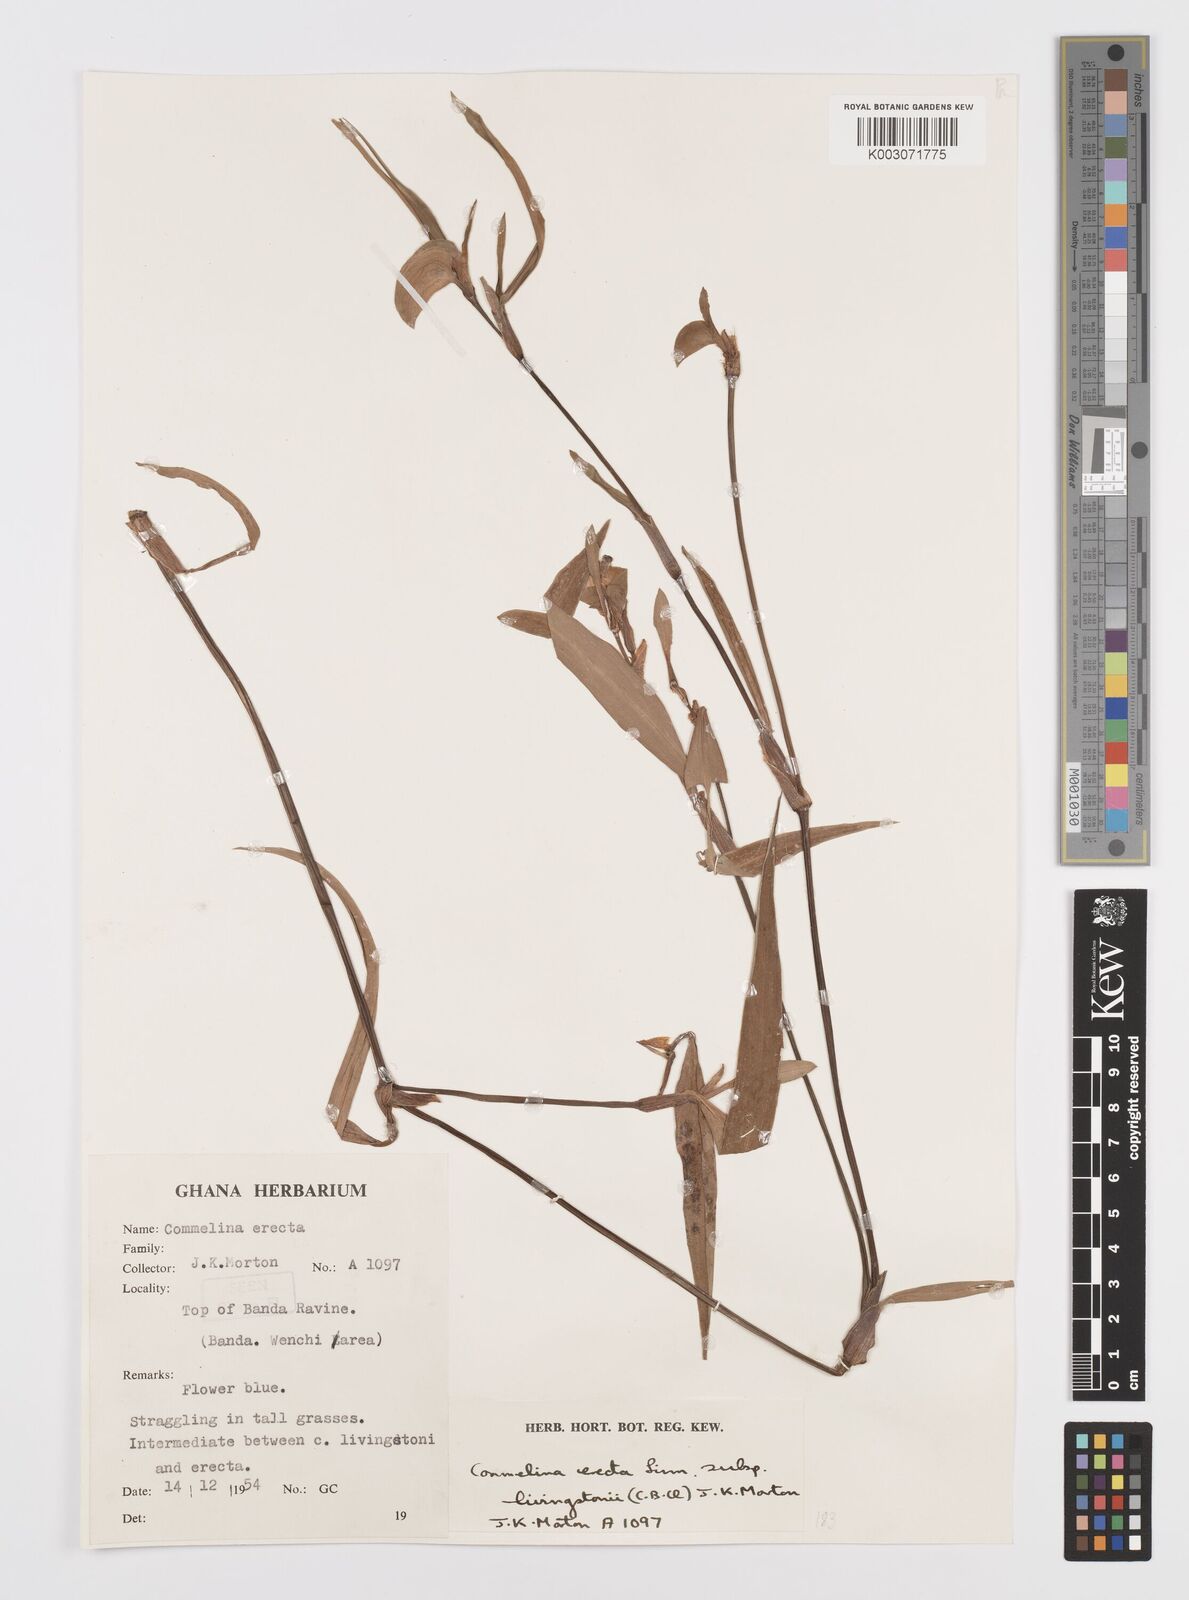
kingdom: Plantae
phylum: Tracheophyta
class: Liliopsida
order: Commelinales
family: Commelinaceae
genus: Commelina
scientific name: Commelina erecta
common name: Blousel blommetjie
